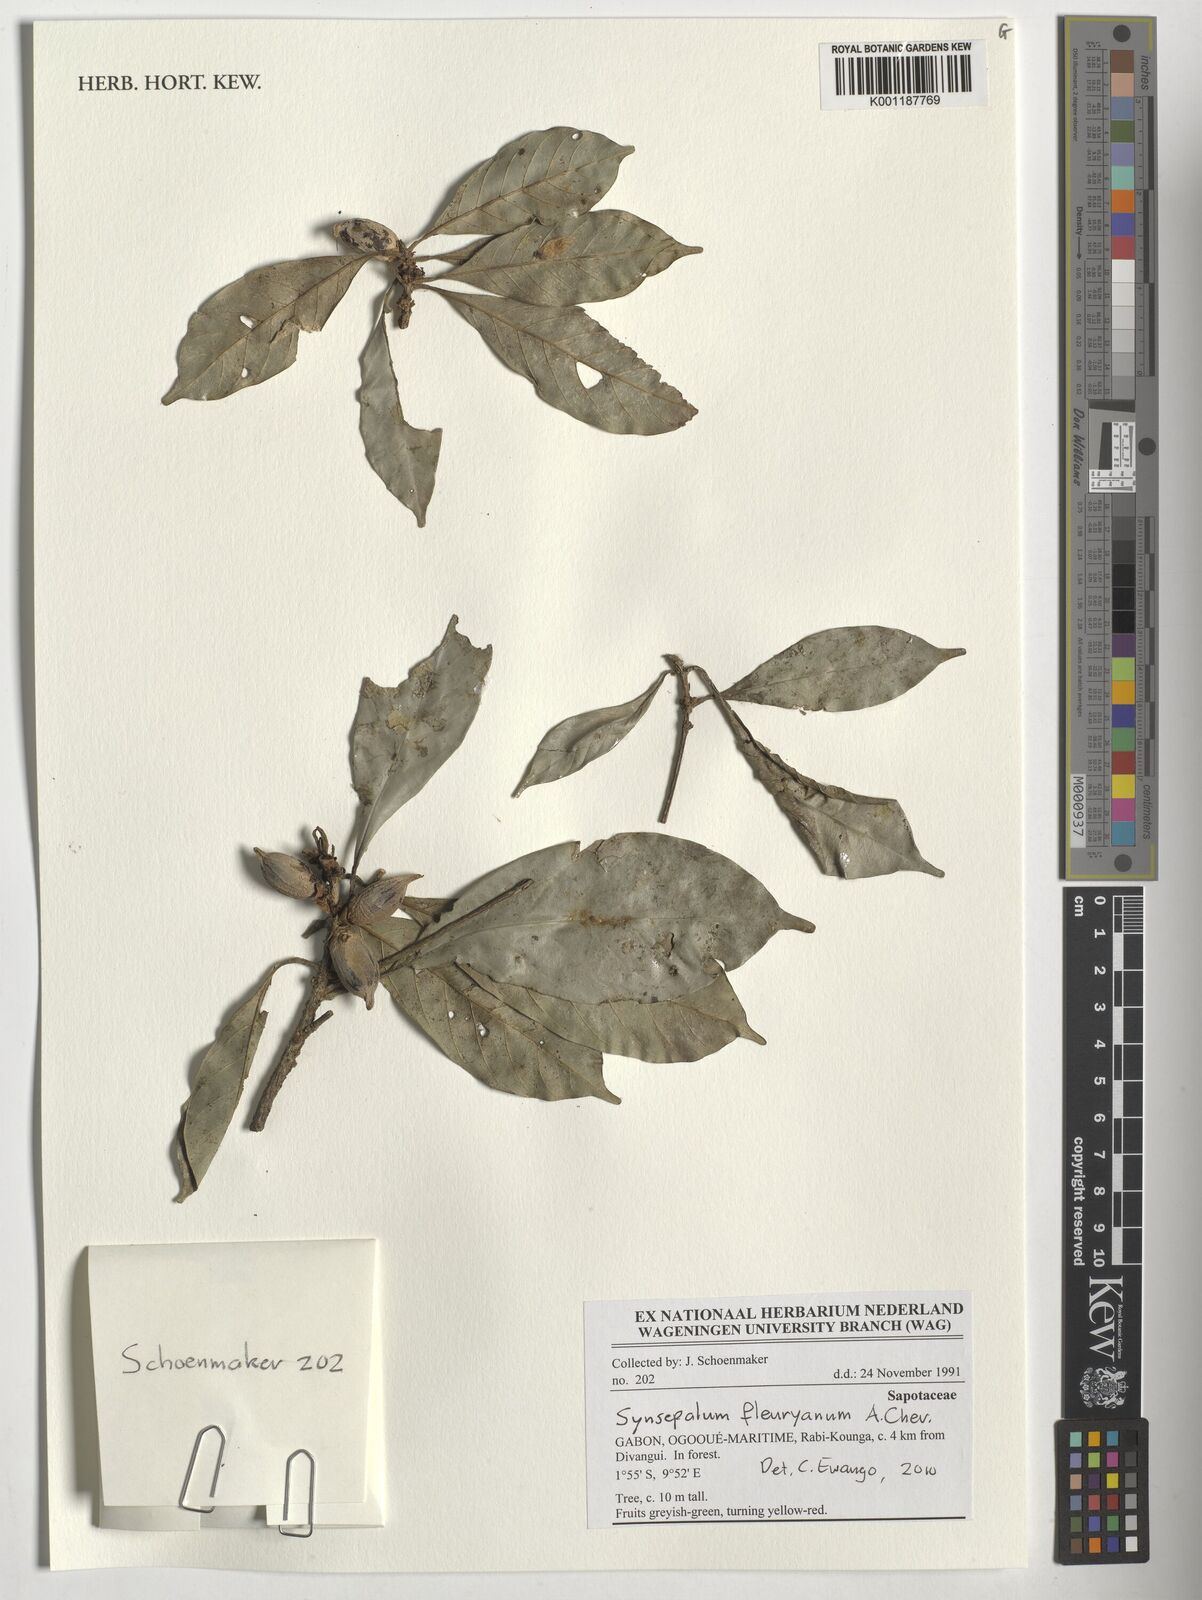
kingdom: Plantae
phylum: Tracheophyta
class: Magnoliopsida
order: Ericales
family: Sapotaceae
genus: Synsepalum
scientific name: Synsepalum fleuryanum
